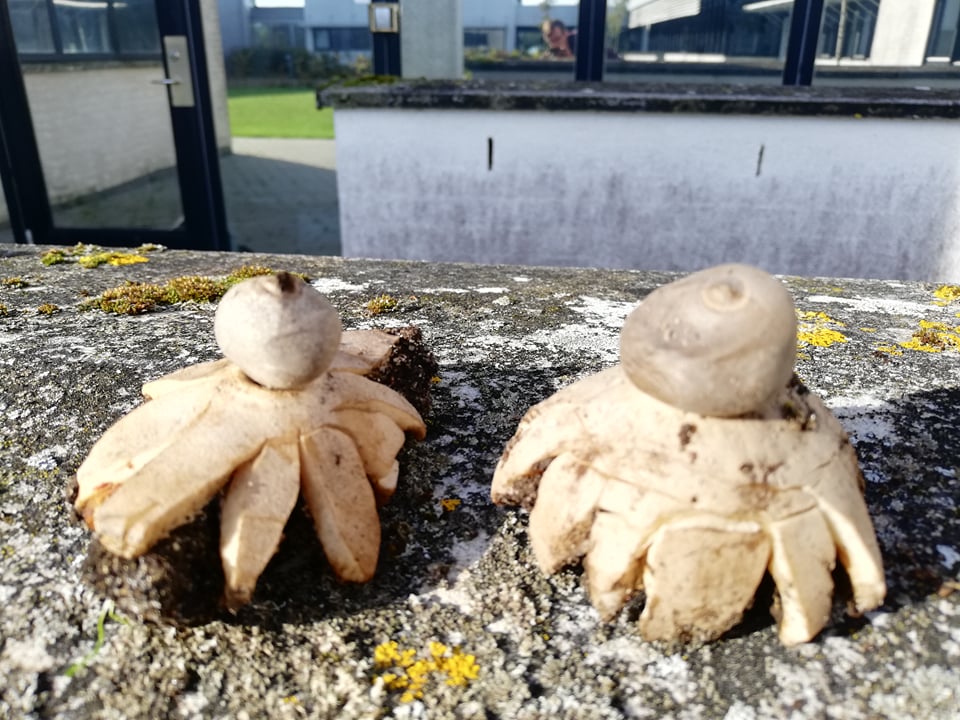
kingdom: Fungi
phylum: Basidiomycota
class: Agaricomycetes
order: Geastrales
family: Geastraceae
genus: Geastrum
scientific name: Geastrum coronatum
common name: mørk stjernebold
